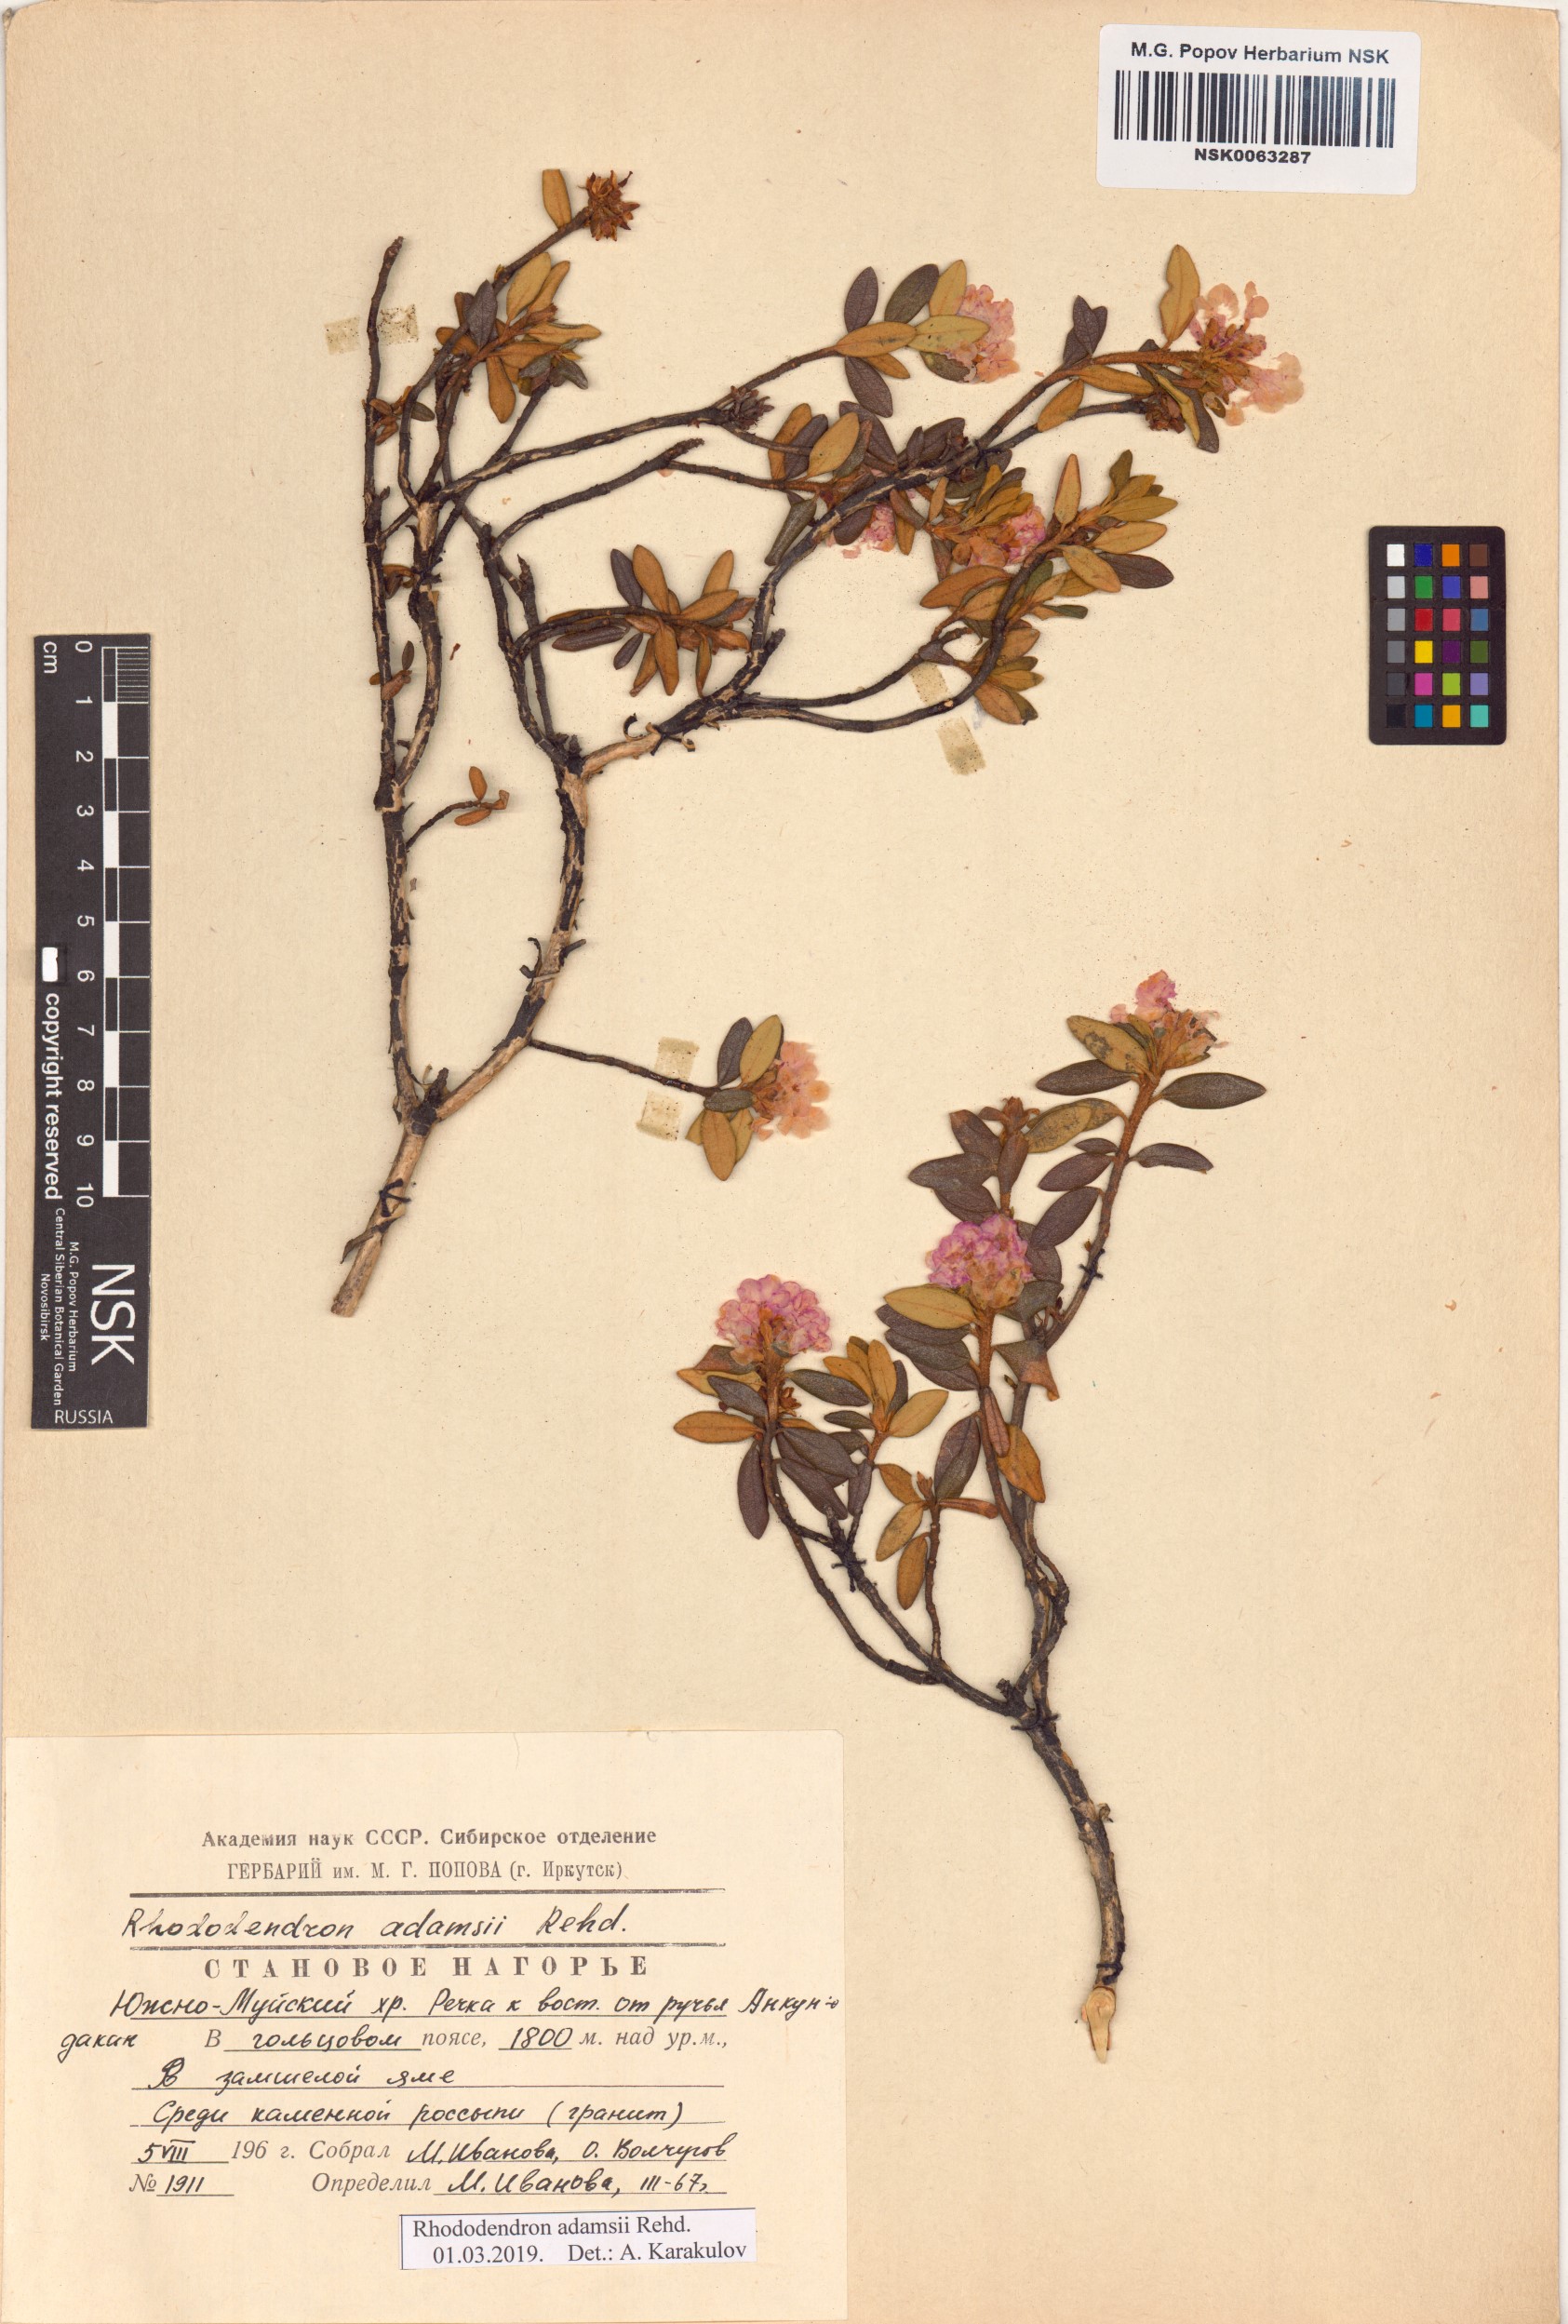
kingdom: Plantae
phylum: Tracheophyta
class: Magnoliopsida
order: Ericales
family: Ericaceae
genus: Rhododendron
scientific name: Rhododendron adamsii
